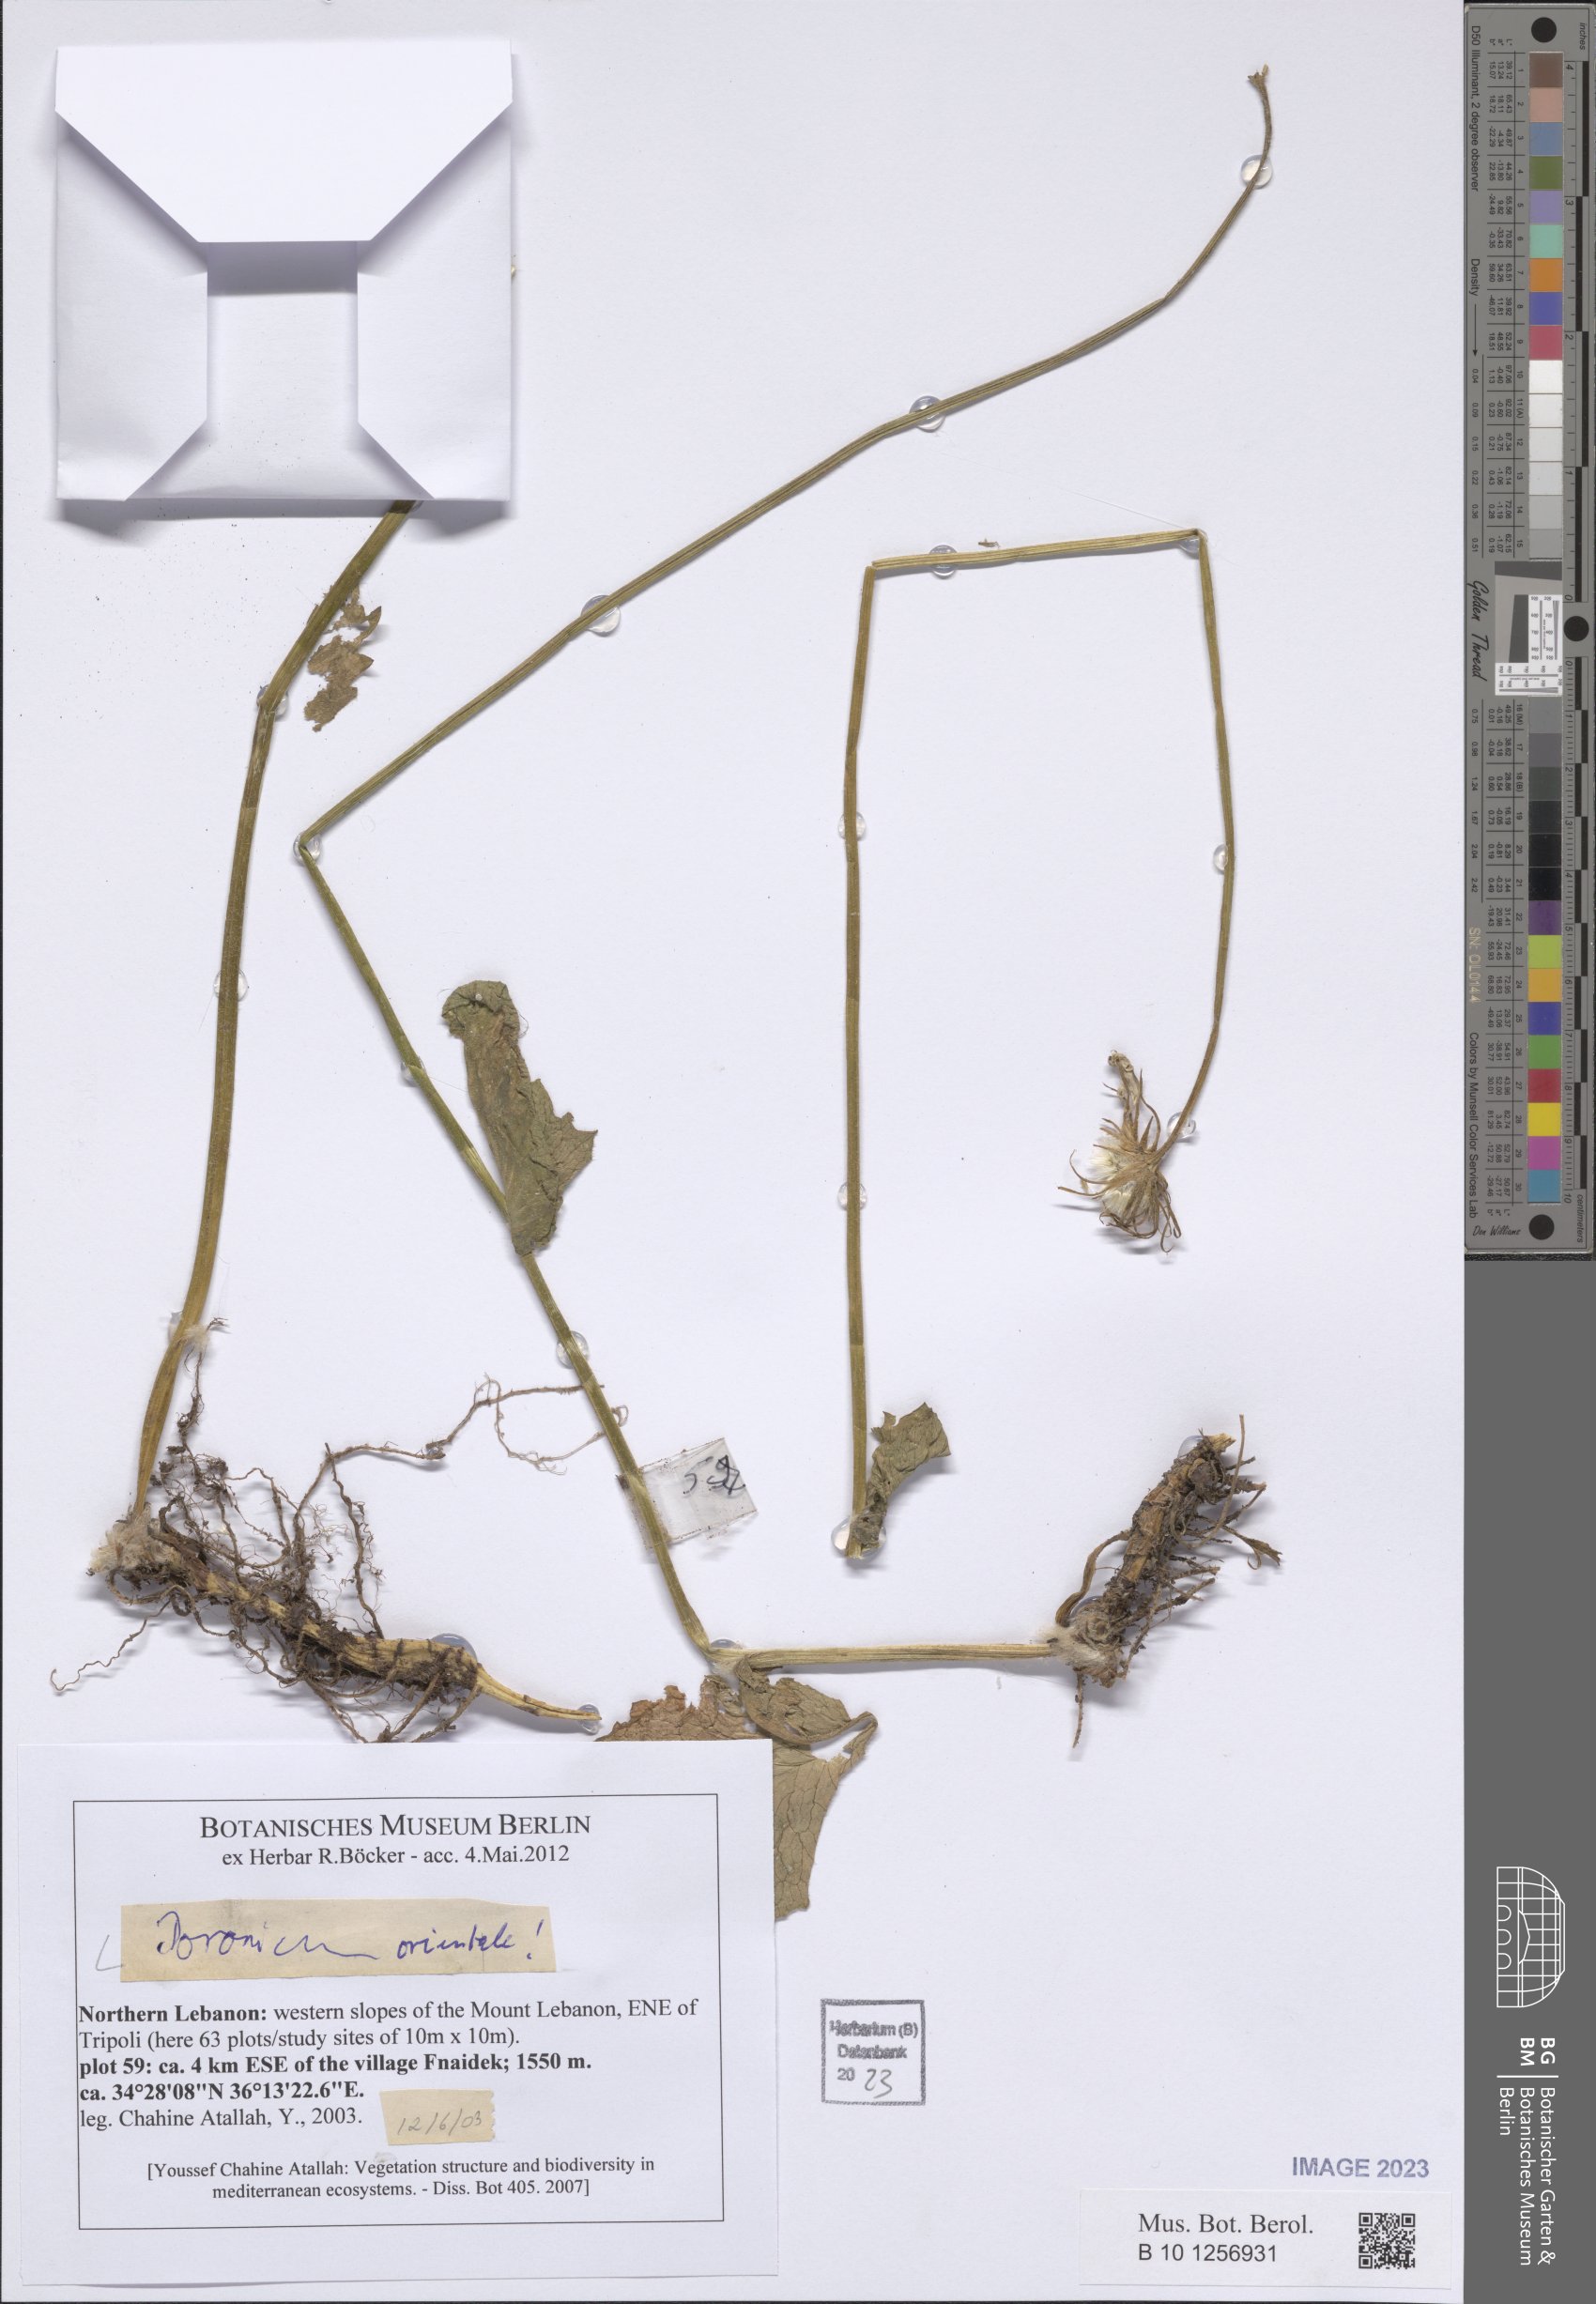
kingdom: Plantae
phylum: Tracheophyta
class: Magnoliopsida
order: Asterales
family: Asteraceae
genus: Doronicum
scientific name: Doronicum orientale
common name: Oriental leopard's-bane
